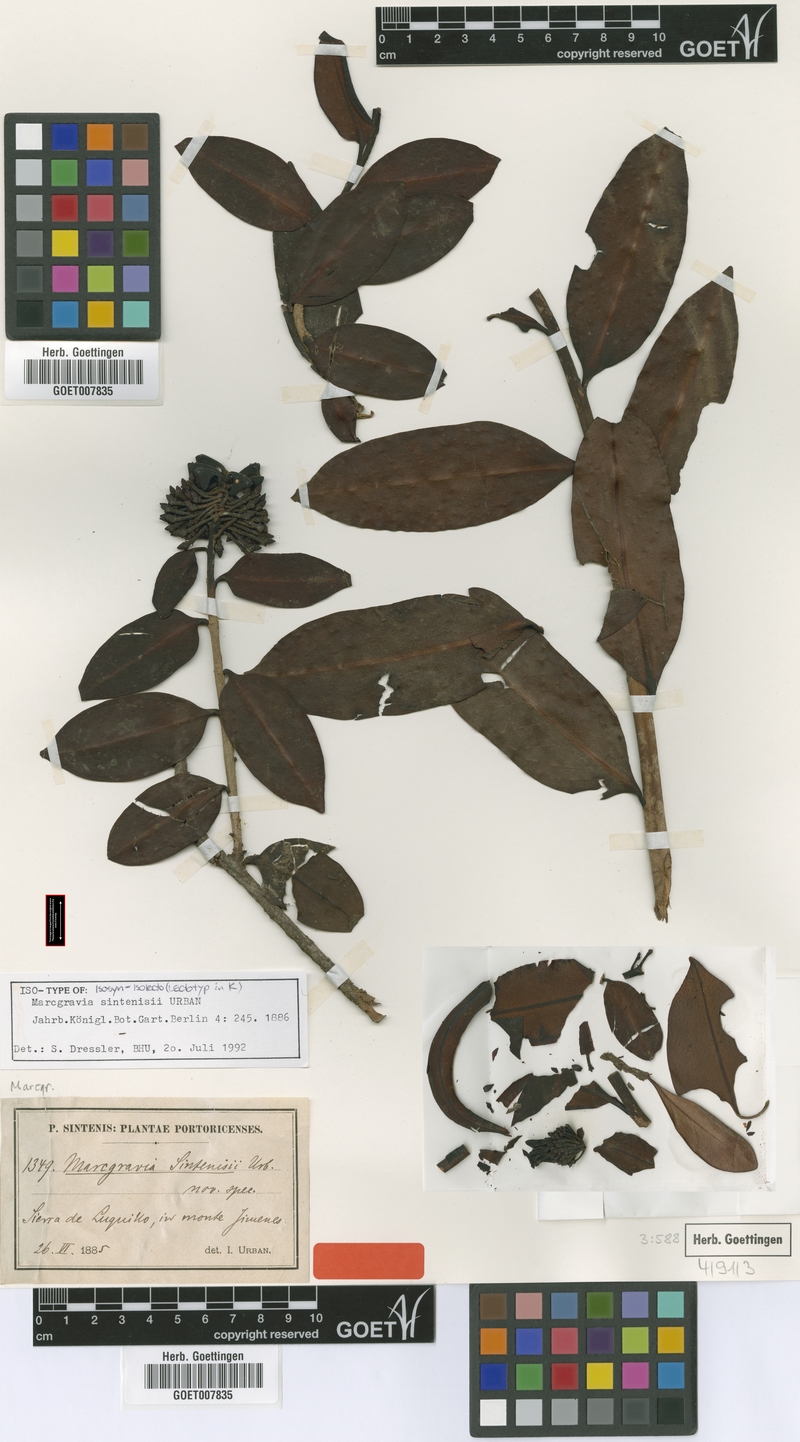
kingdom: Plantae
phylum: Tracheophyta
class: Magnoliopsida
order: Ericales
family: Marcgraviaceae
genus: Marcgravia
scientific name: Marcgravia sintenisii
